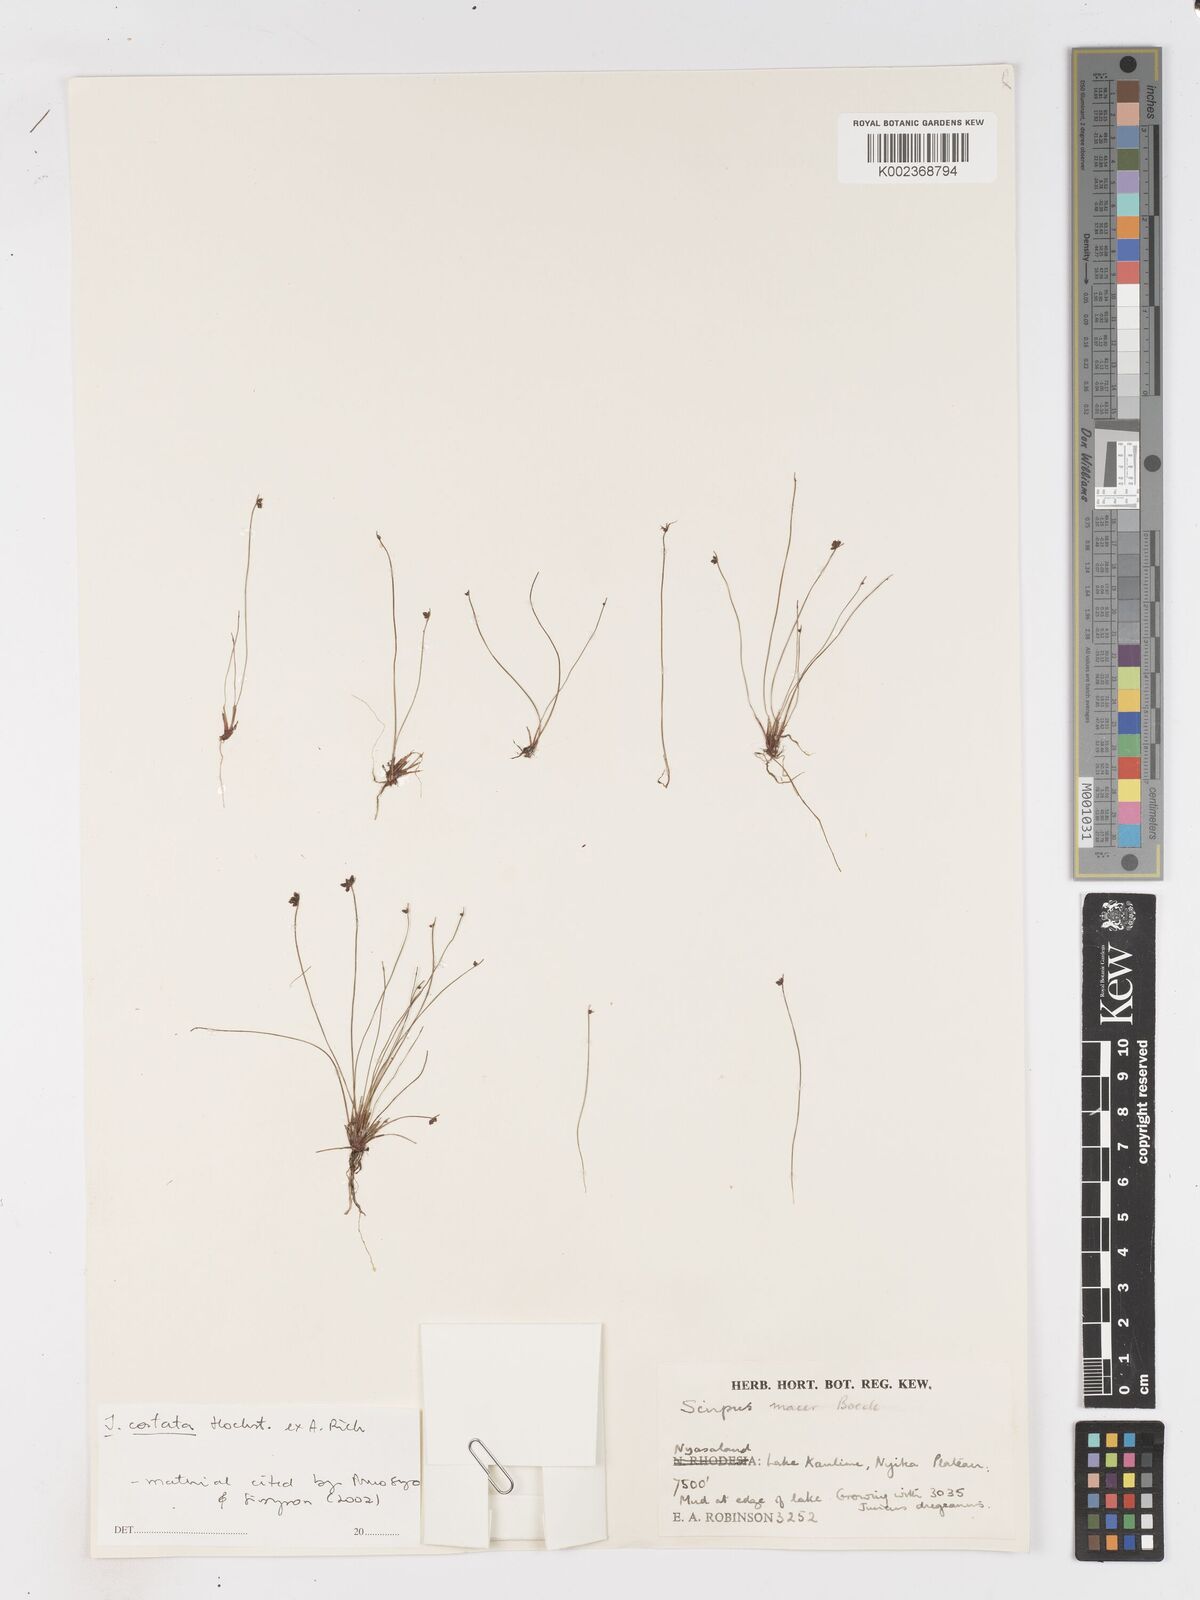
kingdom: Plantae
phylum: Tracheophyta
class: Liliopsida
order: Poales
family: Cyperaceae
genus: Isolepis
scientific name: Isolepis costata
